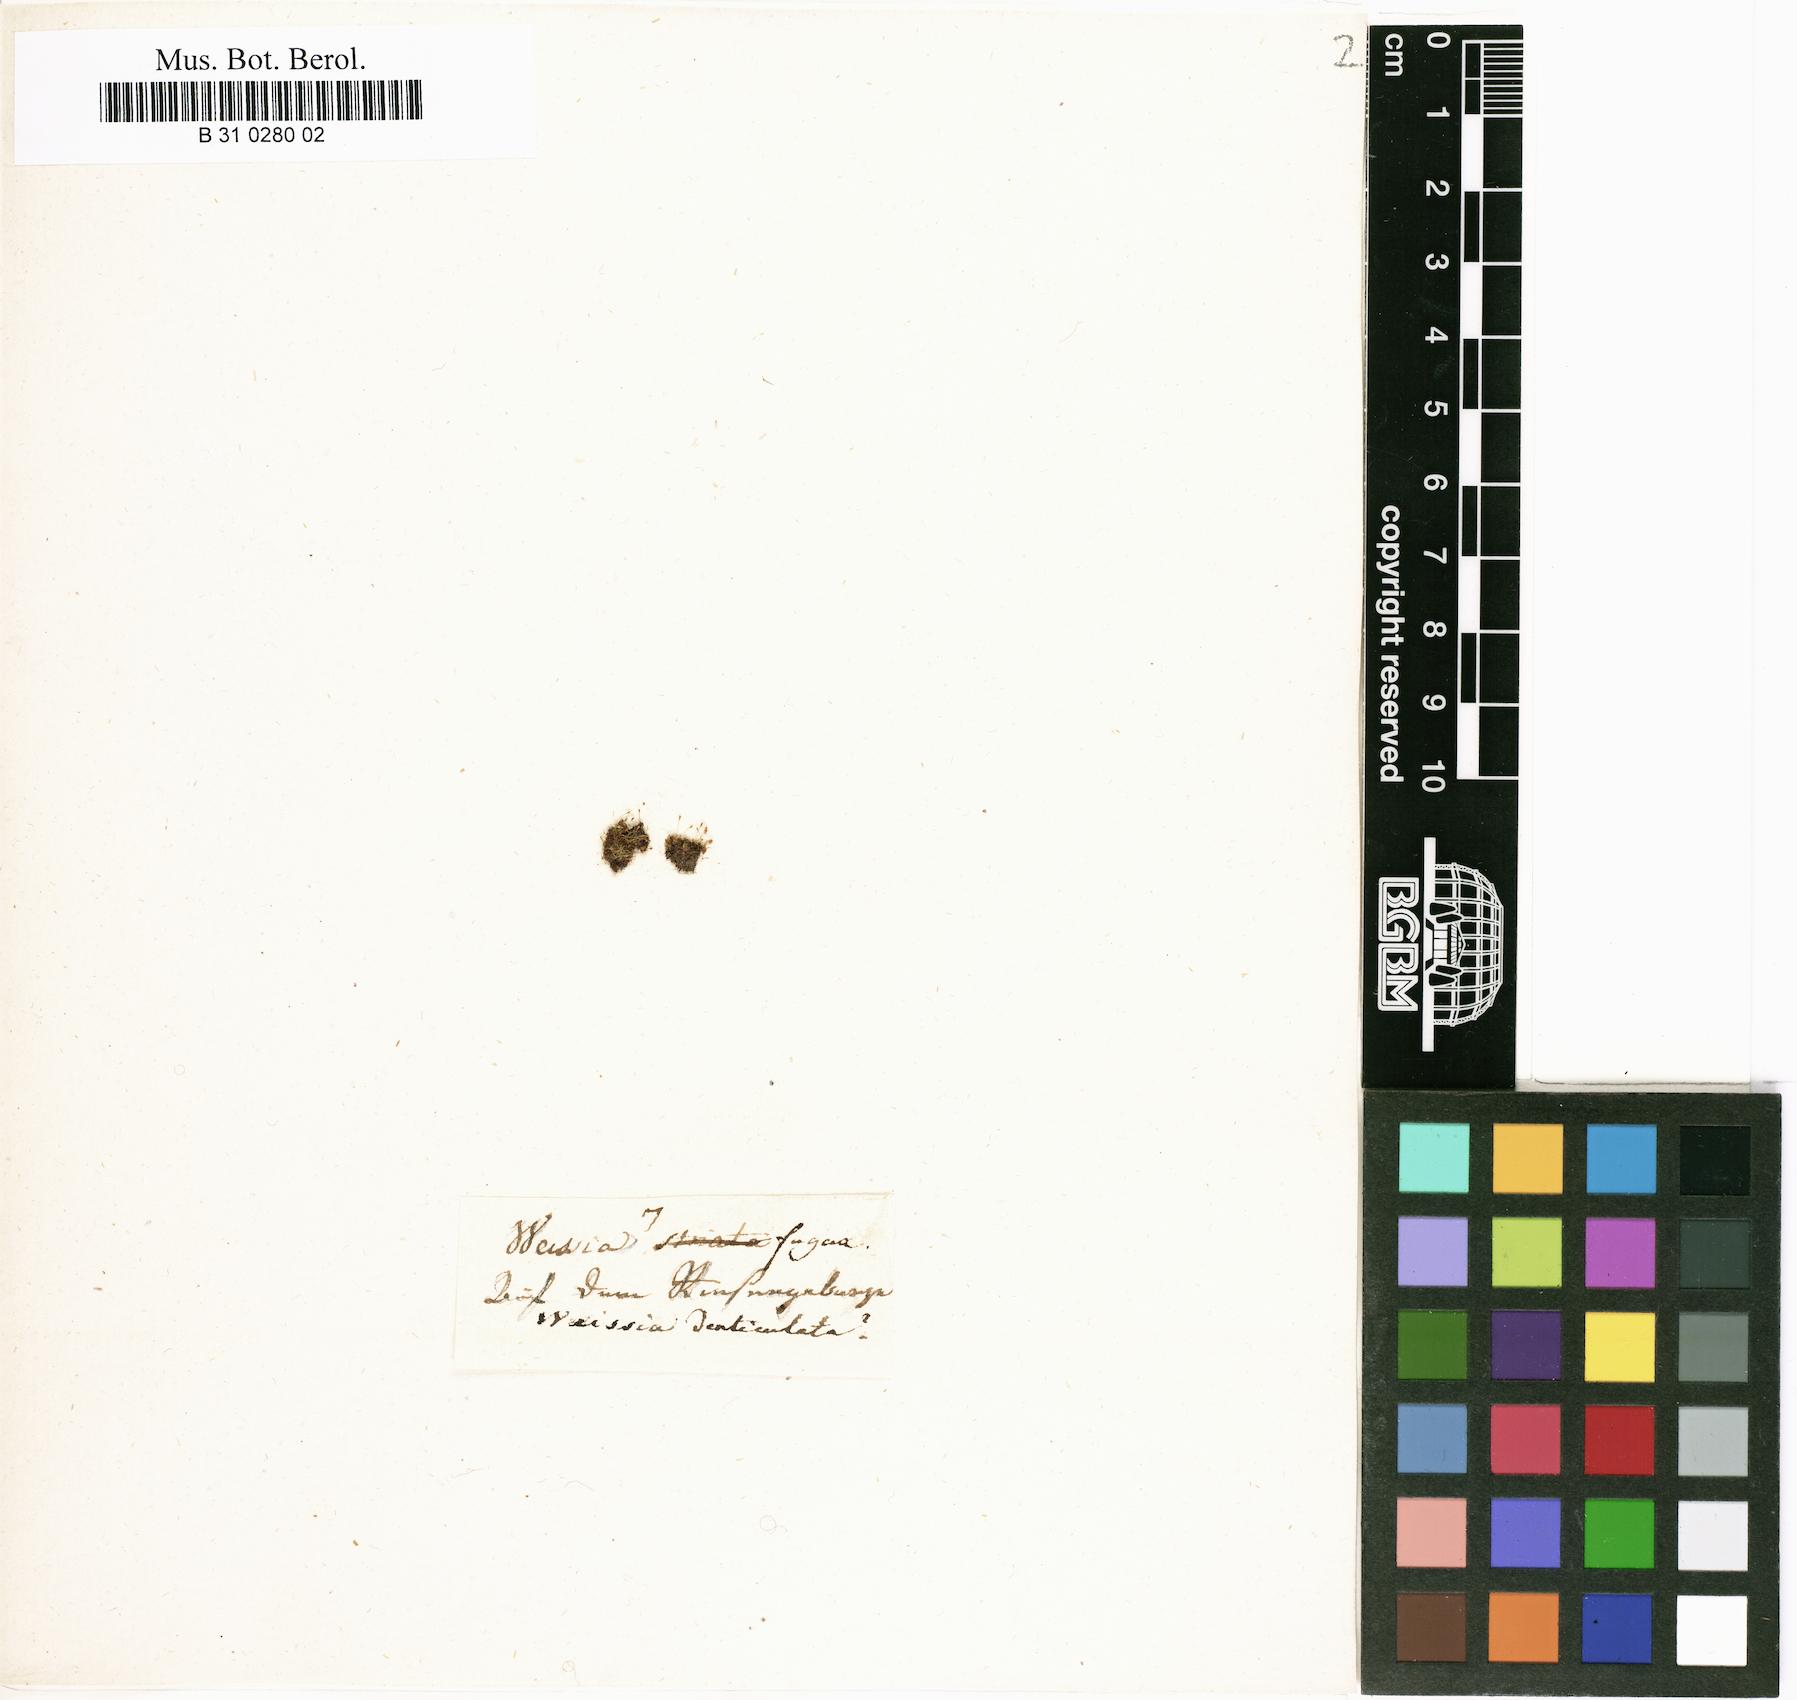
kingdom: Plantae
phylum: Bryophyta
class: Bryopsida
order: Dicranales
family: Rhabdoweisiaceae
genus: Rhabdoweisia
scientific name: Rhabdoweisia crispata
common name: Fine-toothed streak moss
